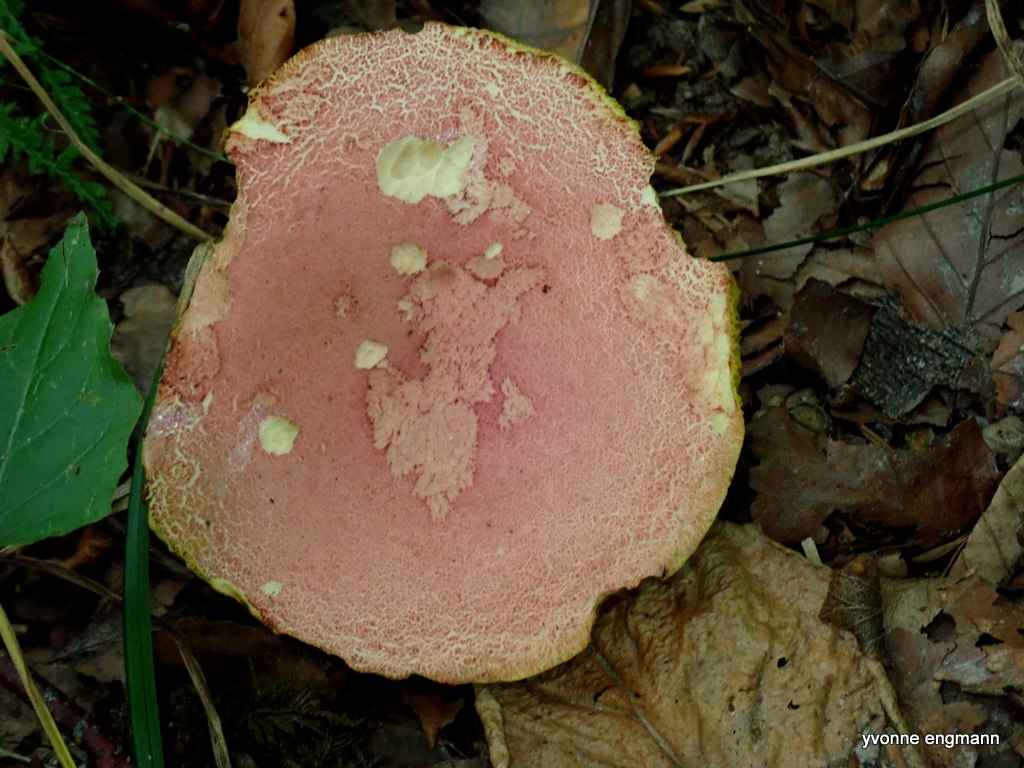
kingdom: Fungi
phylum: Basidiomycota
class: Agaricomycetes
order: Boletales
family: Boletaceae
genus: Hortiboletus
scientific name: Hortiboletus rubellus
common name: blodrød rørhat
